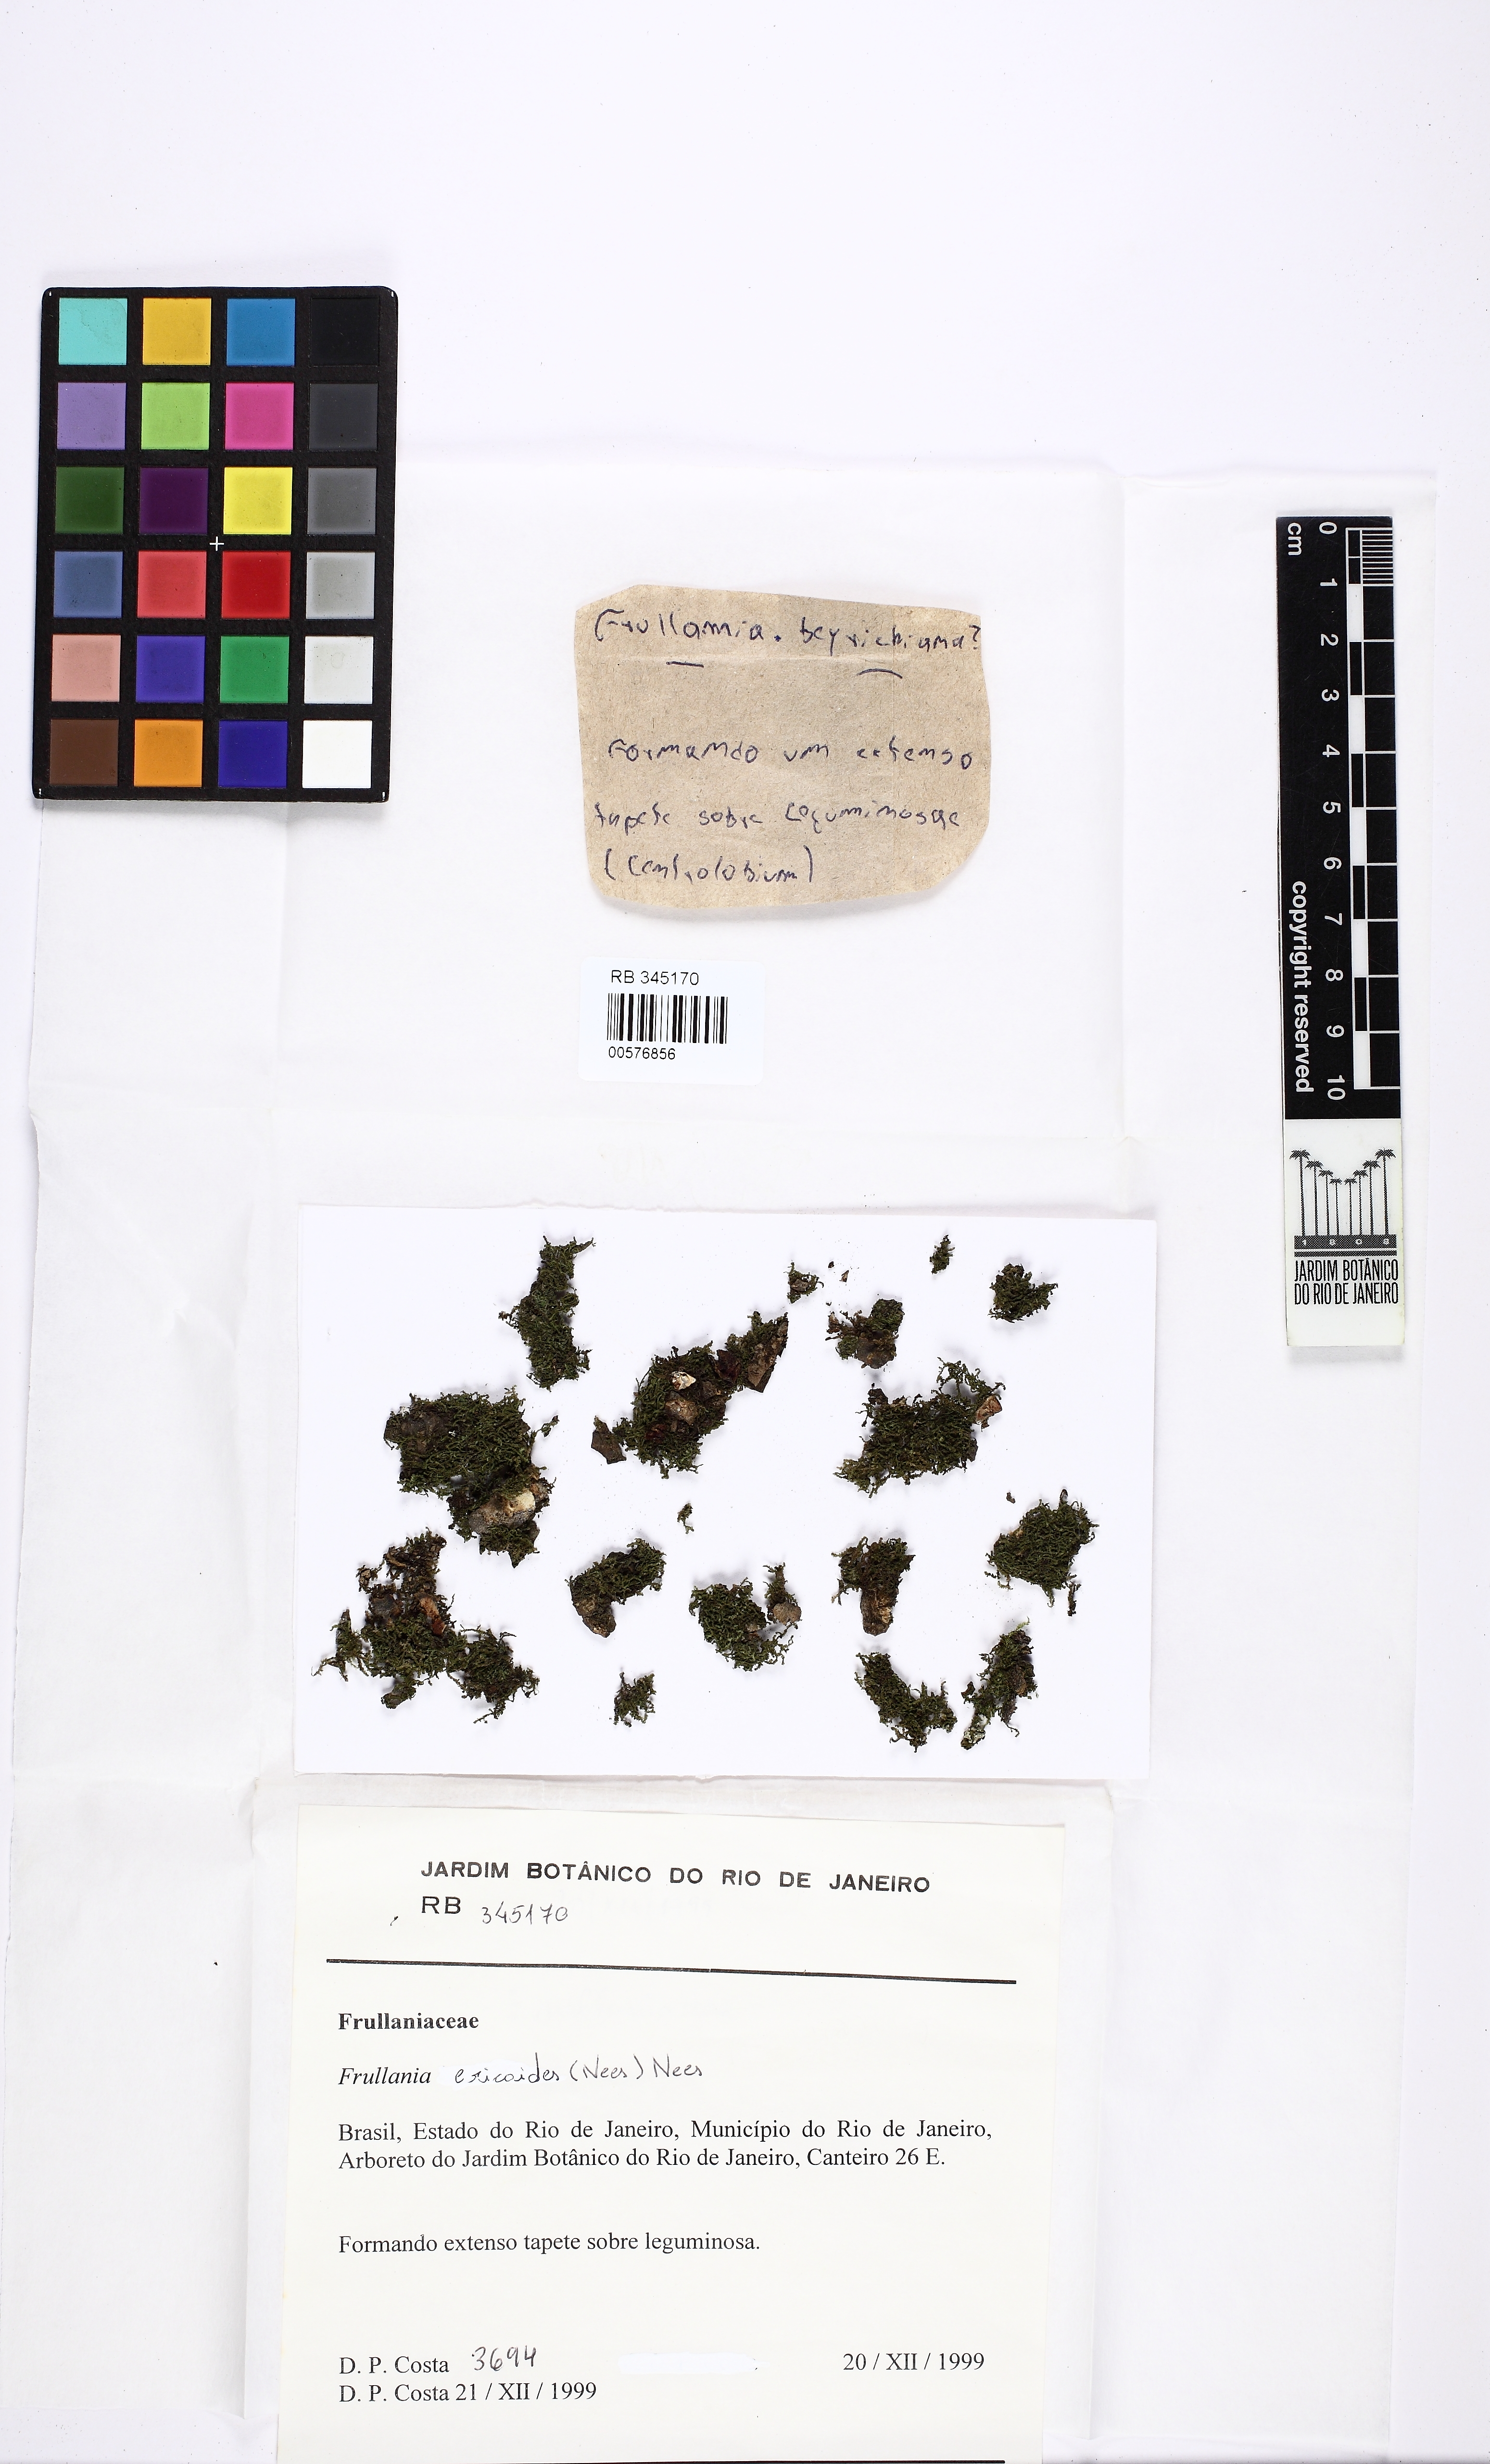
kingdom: Plantae
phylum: Marchantiophyta
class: Jungermanniopsida
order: Porellales
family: Frullaniaceae
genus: Frullania
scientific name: Frullania ericoides
